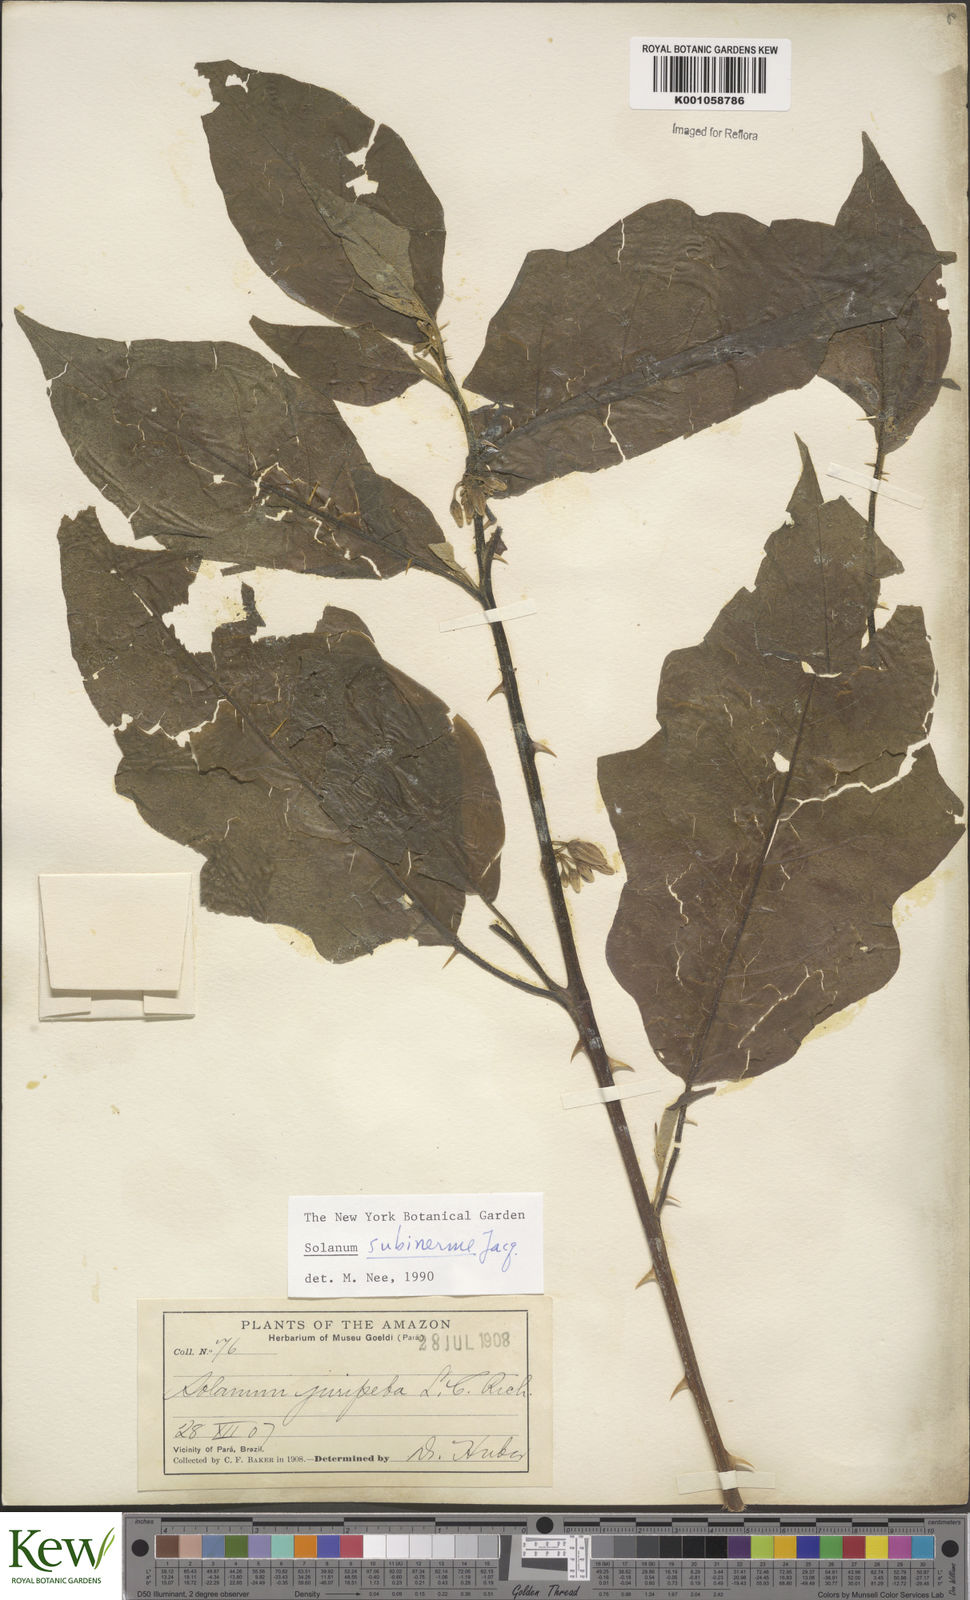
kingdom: Plantae
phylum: Tracheophyta
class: Magnoliopsida
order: Solanales
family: Solanaceae
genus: Solanum
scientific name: Solanum subinerme
